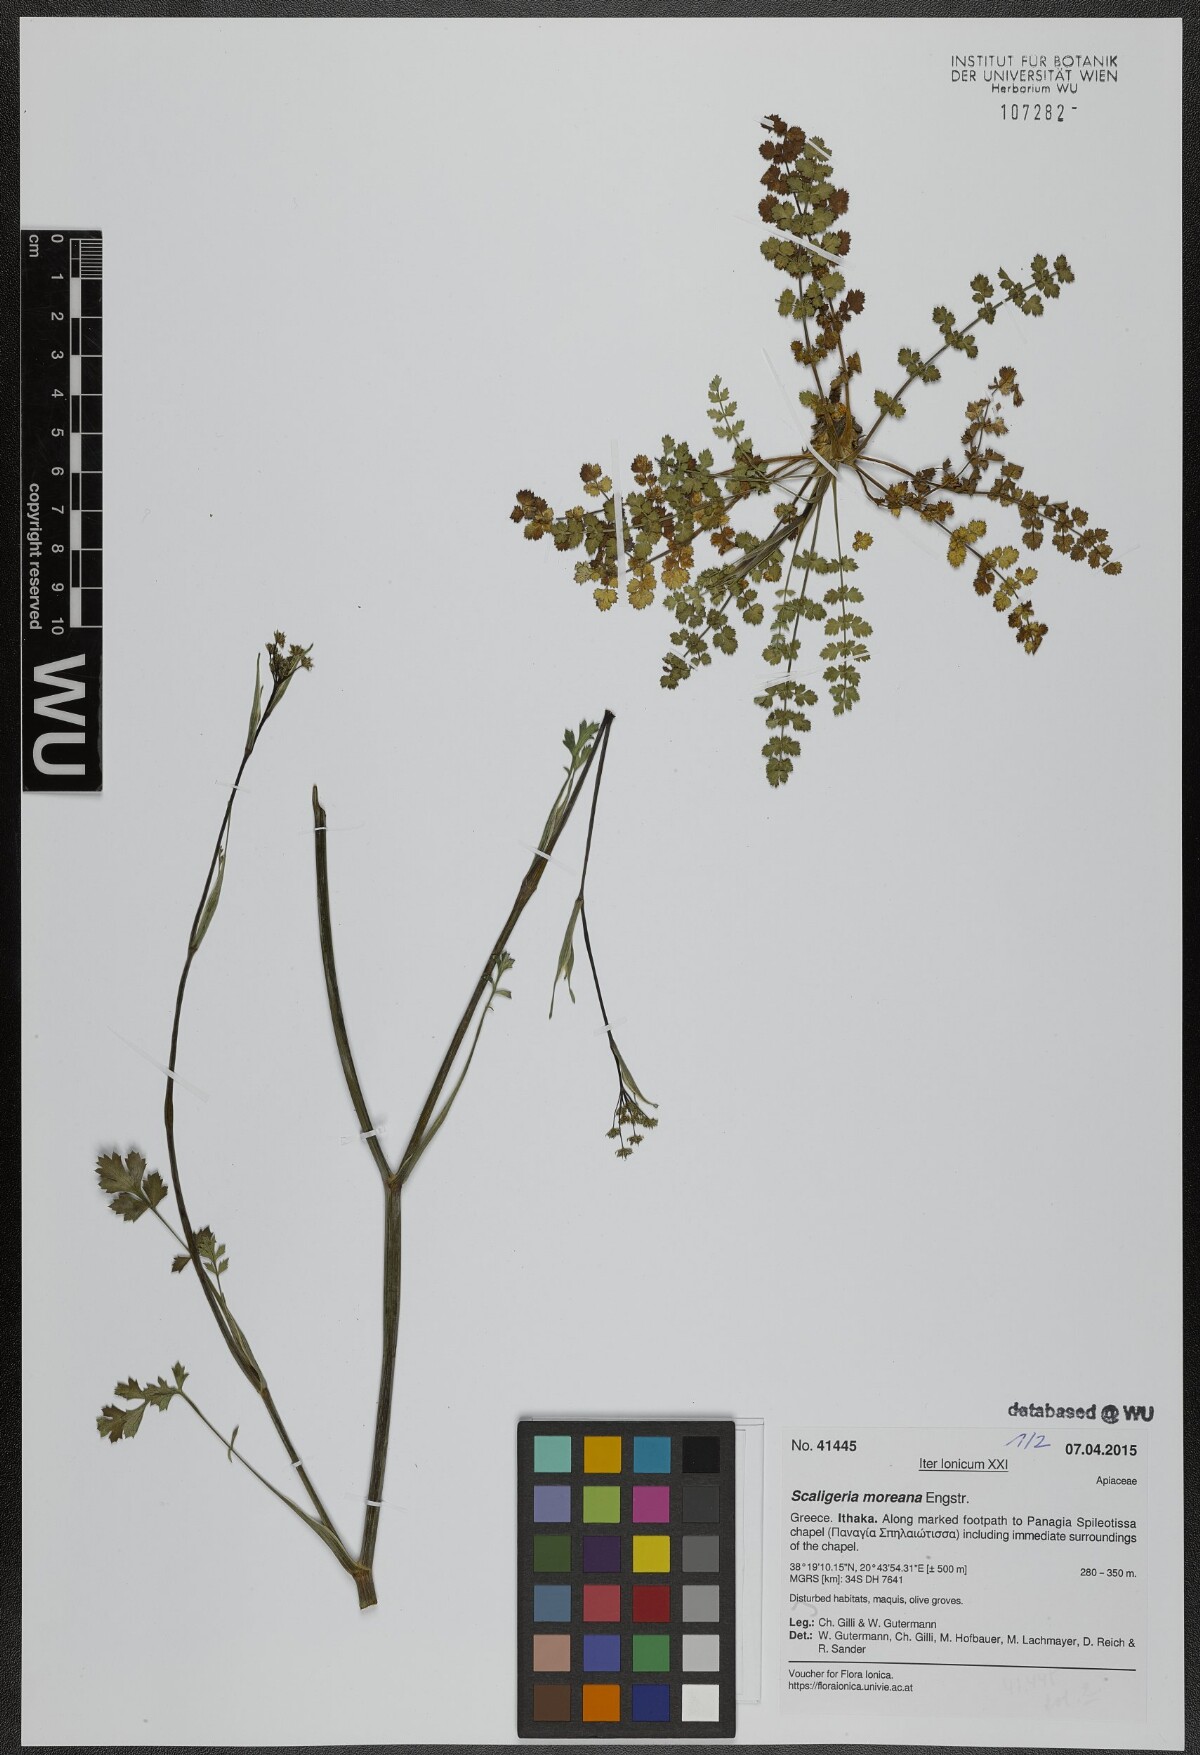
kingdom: Plantae
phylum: Tracheophyta
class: Magnoliopsida
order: Apiales
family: Apiaceae
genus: Scaligeria
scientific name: Scaligeria moreana
